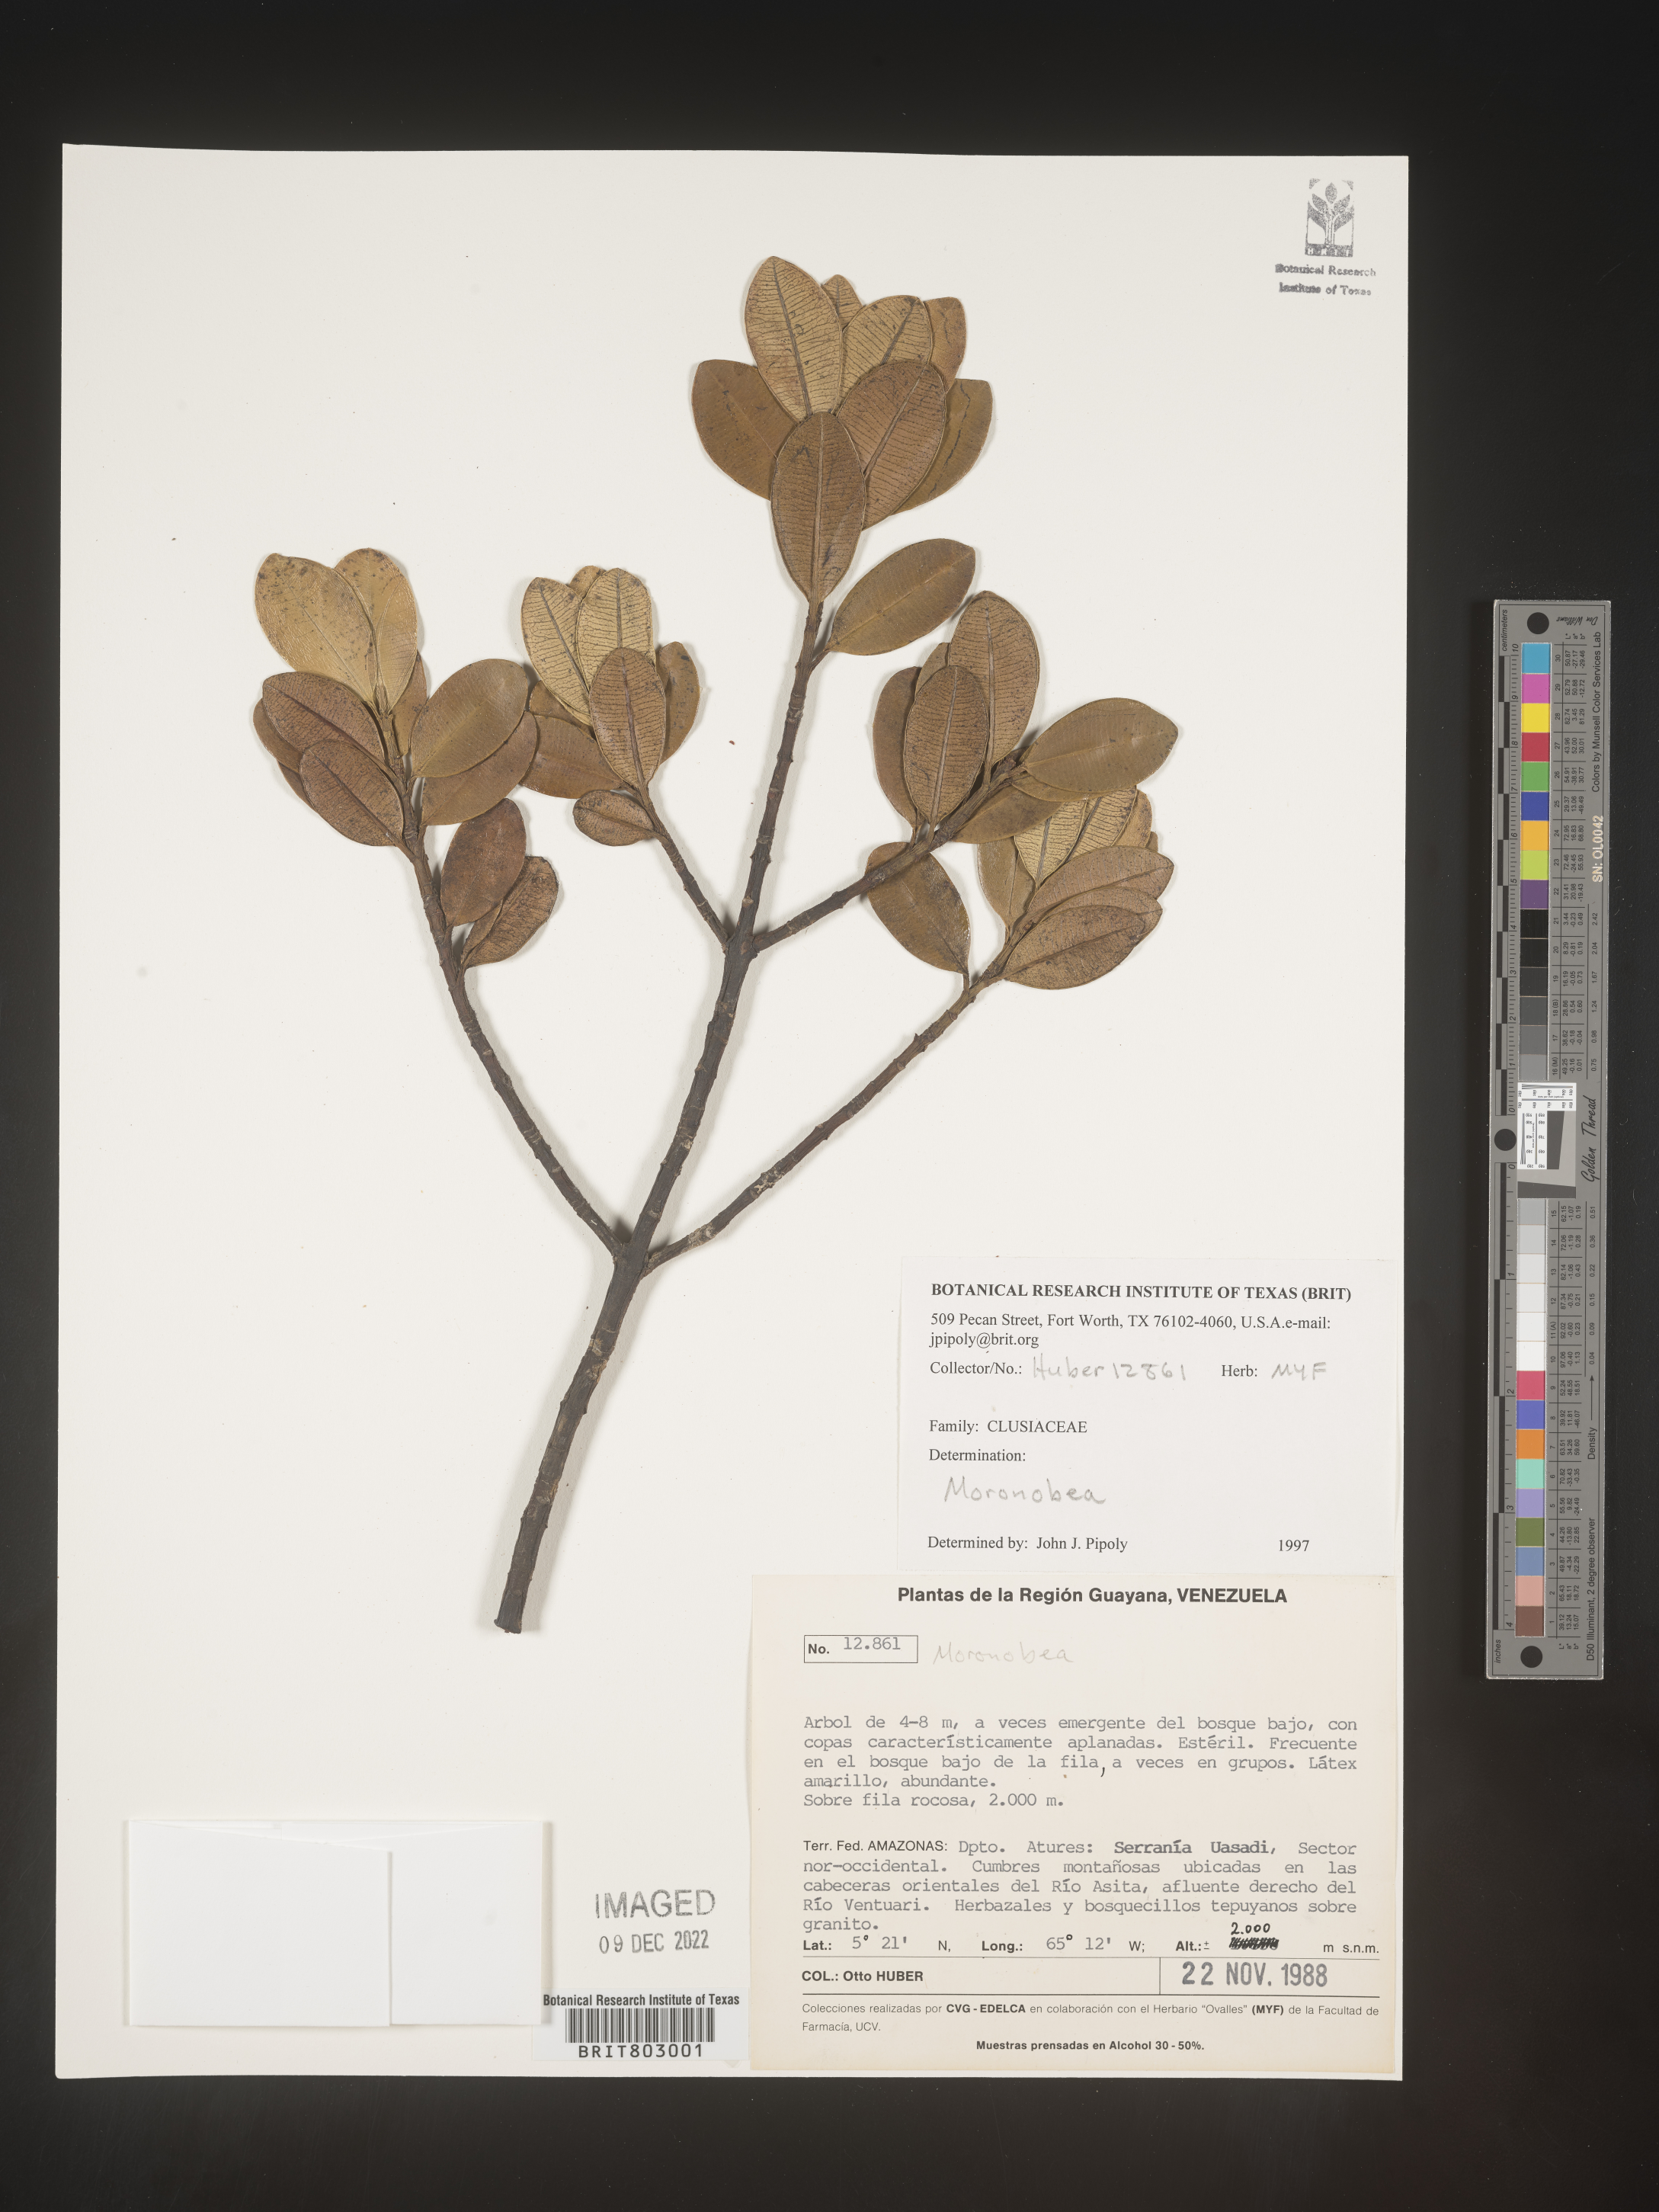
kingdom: Plantae
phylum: Tracheophyta
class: Magnoliopsida
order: Malpighiales
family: Clusiaceae
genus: Moronobea
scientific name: Moronobea
